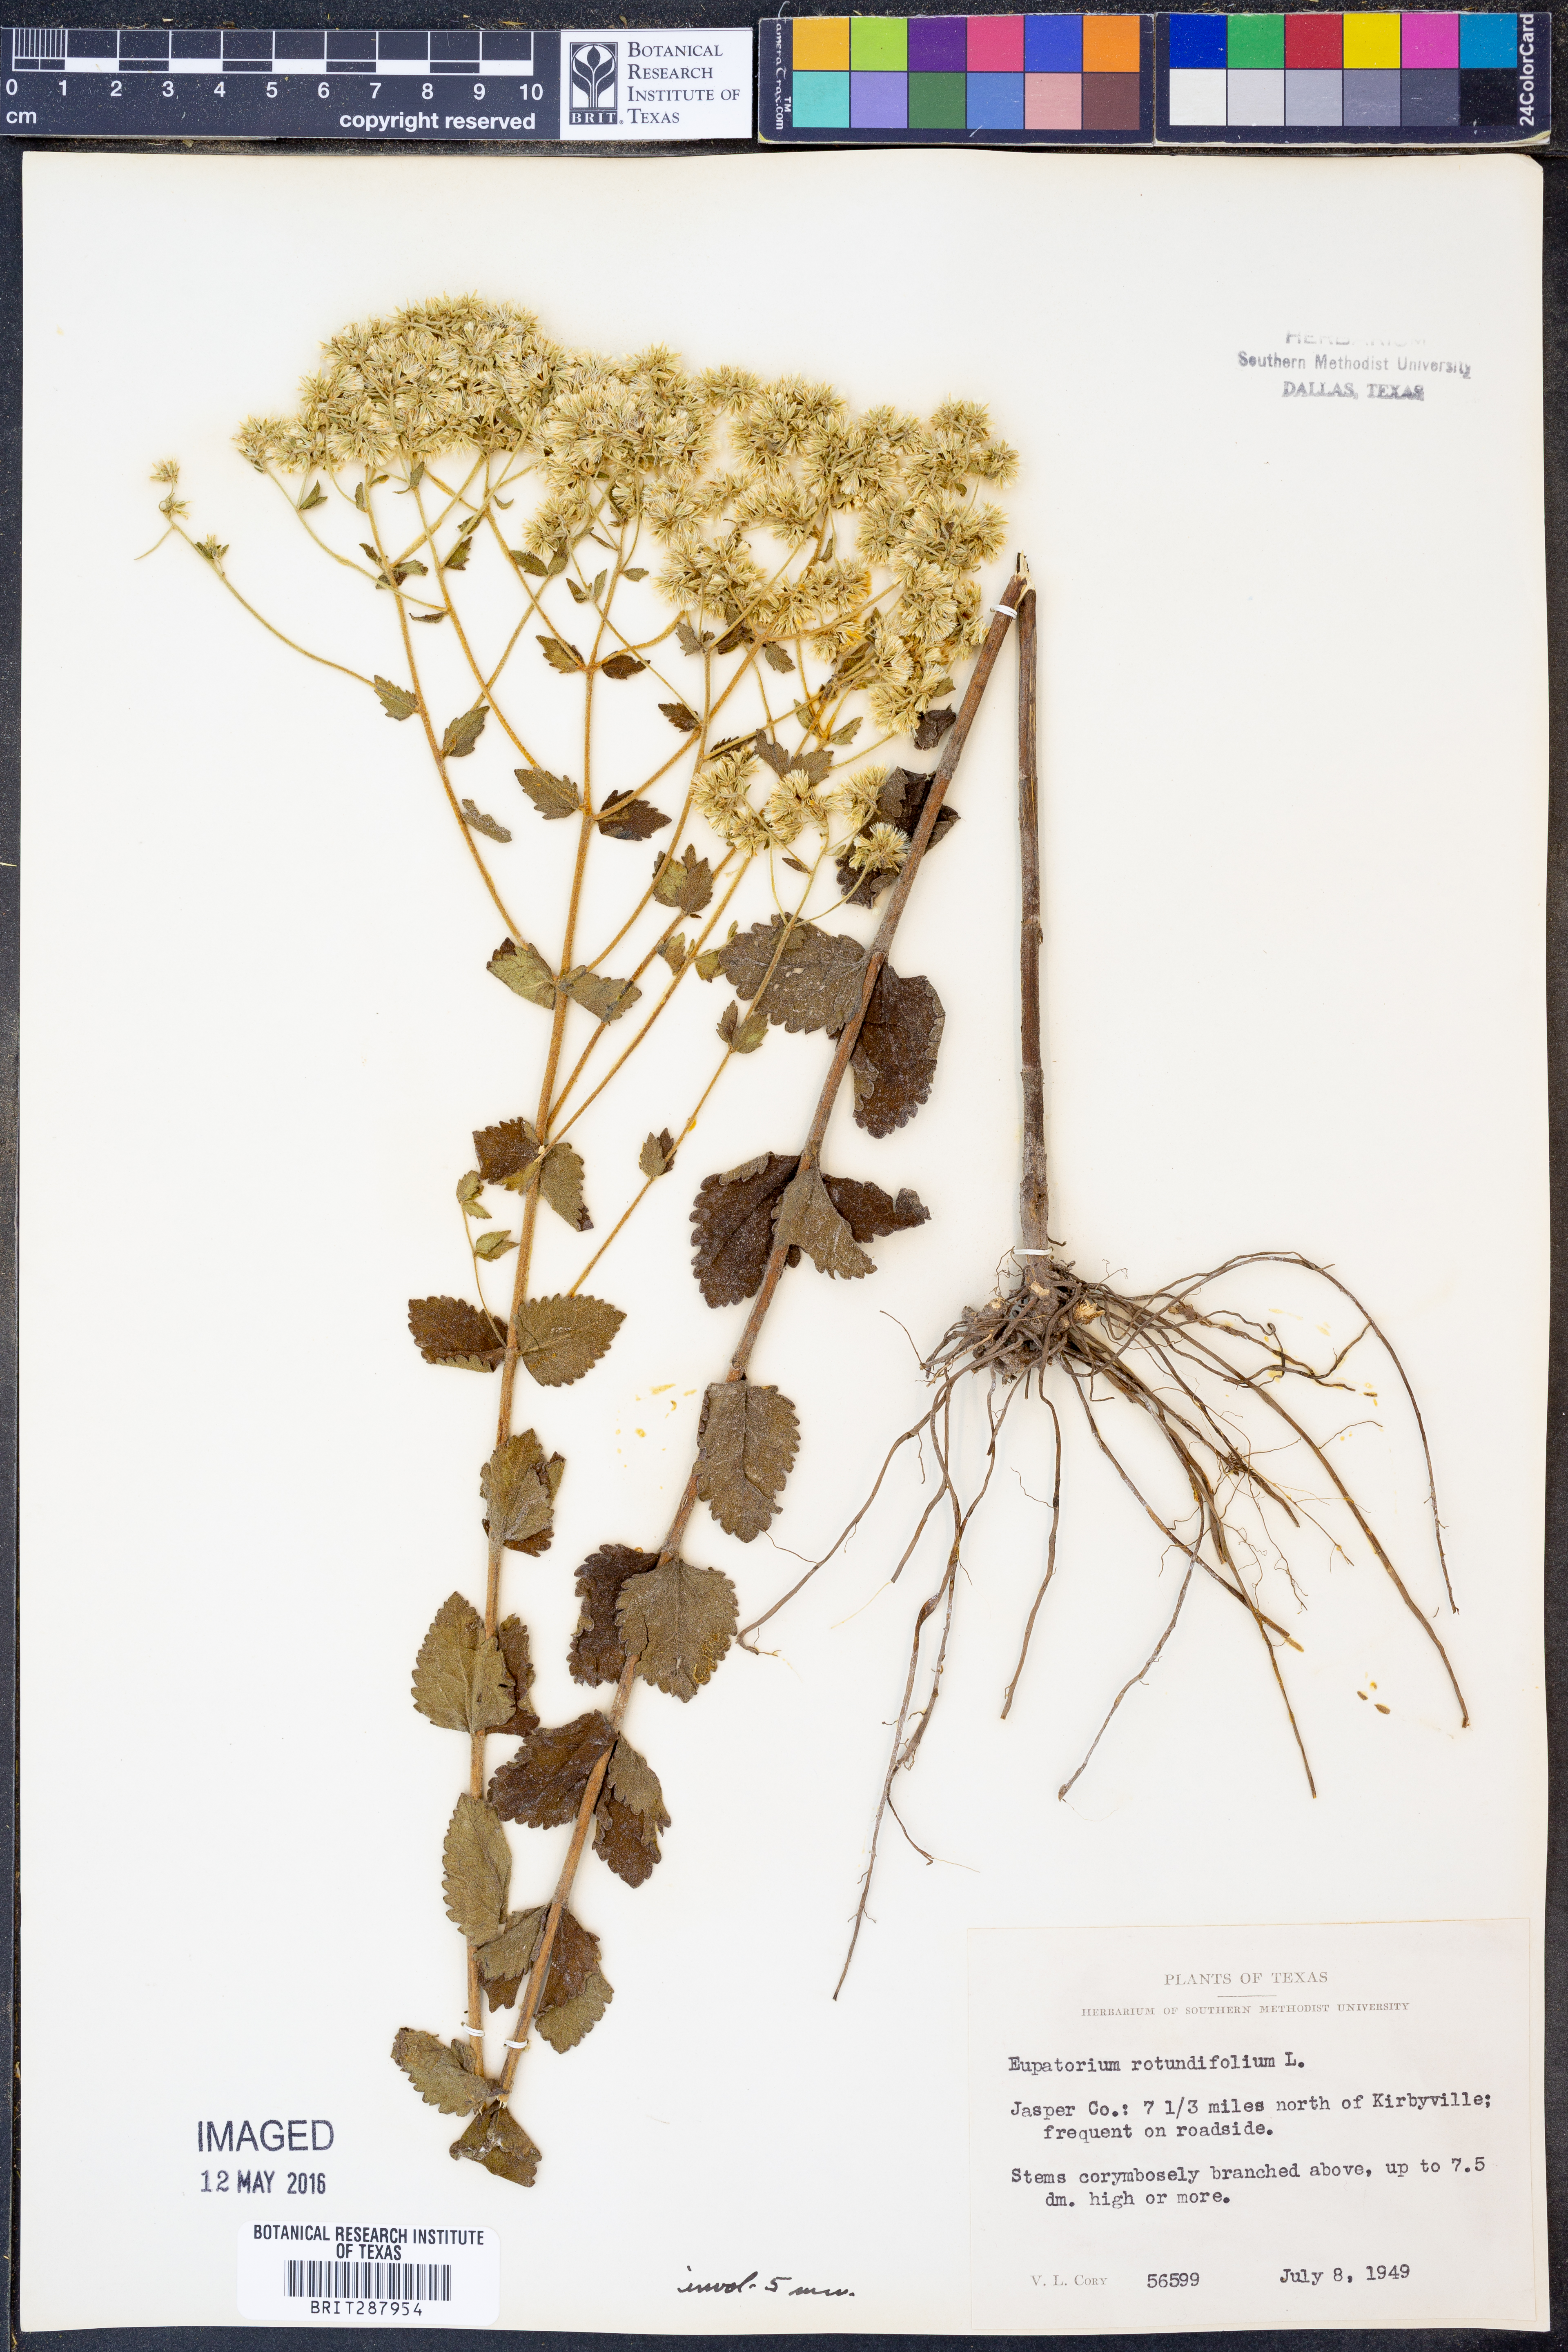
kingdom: Plantae
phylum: Tracheophyta
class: Magnoliopsida
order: Asterales
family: Asteraceae
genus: Eupatorium
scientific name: Eupatorium rotundifolium
